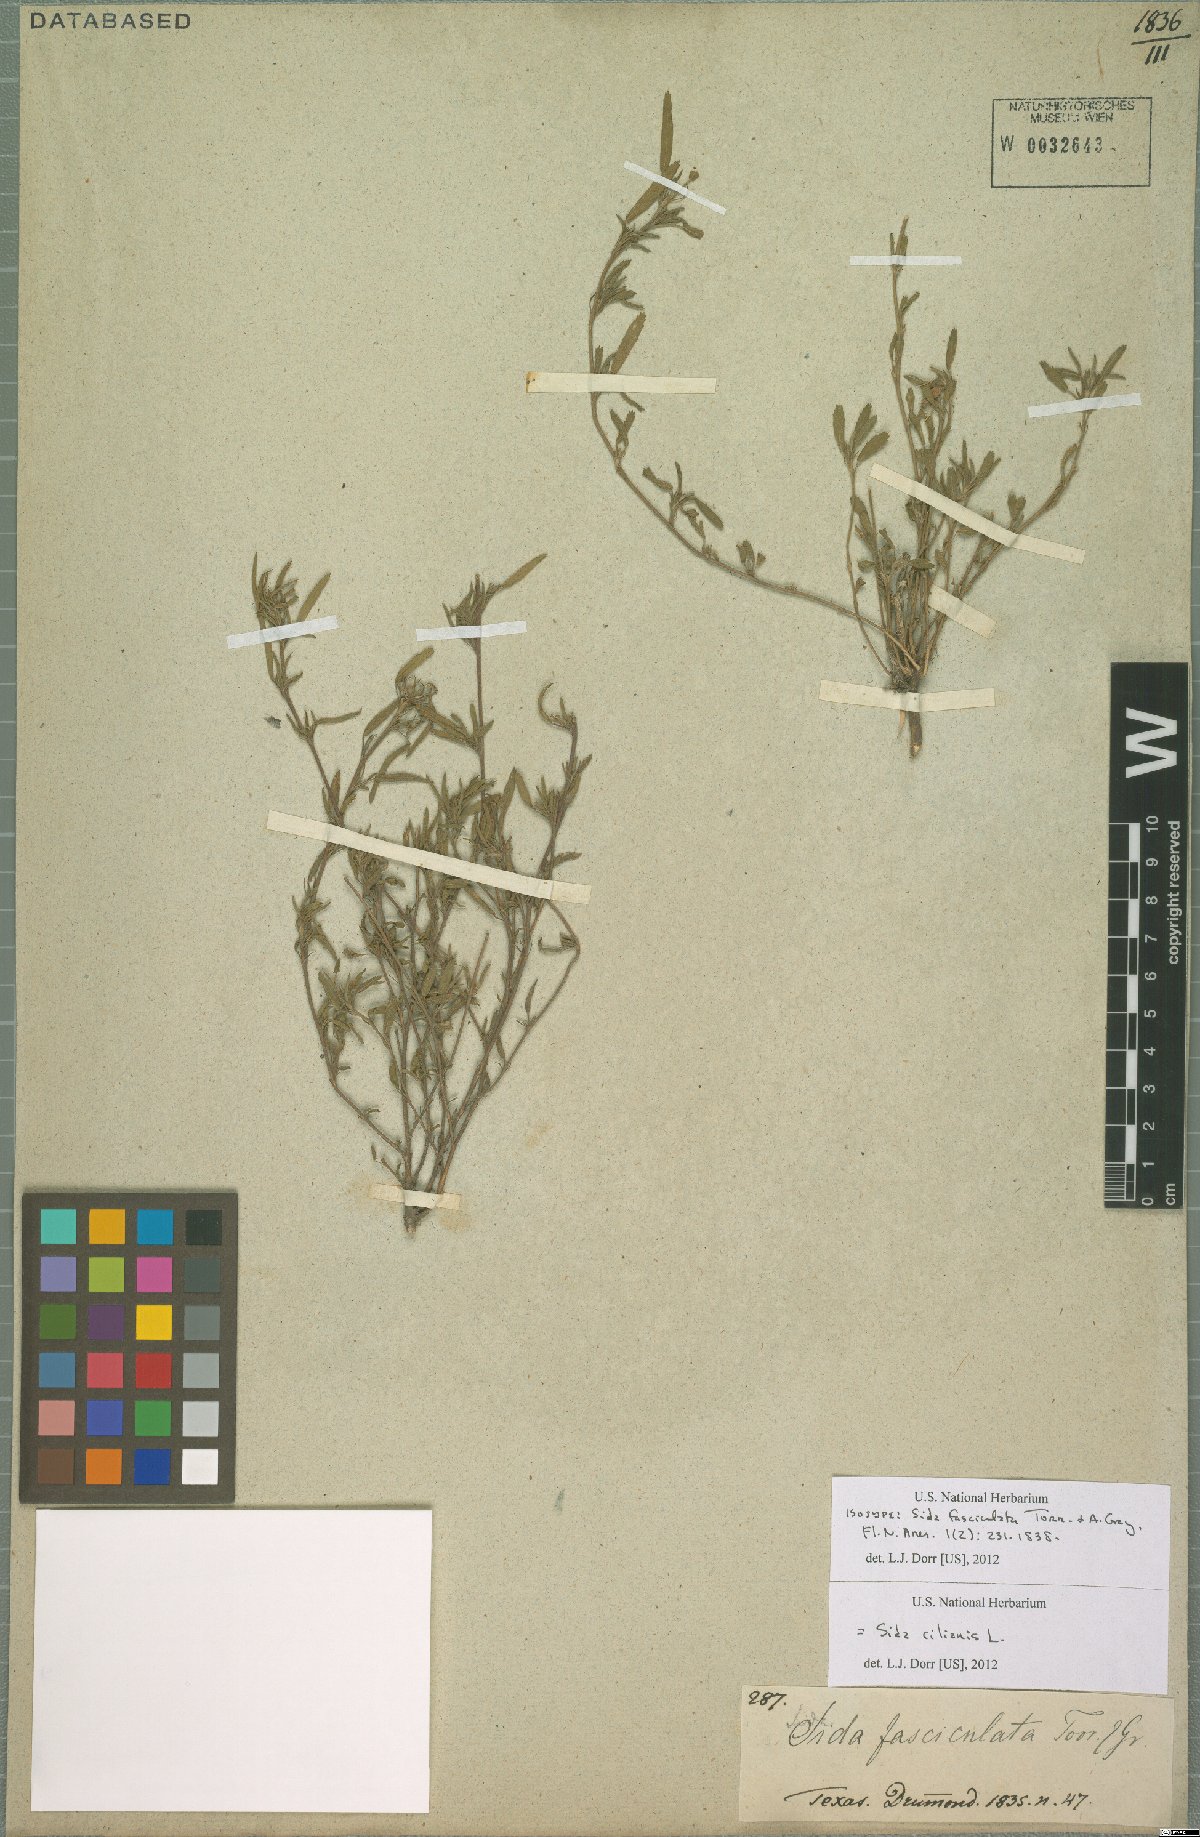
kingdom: Plantae
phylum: Tracheophyta
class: Magnoliopsida
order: Malvales
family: Malvaceae
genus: Sida
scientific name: Sida ciliaris
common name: Bracted fanpetals
